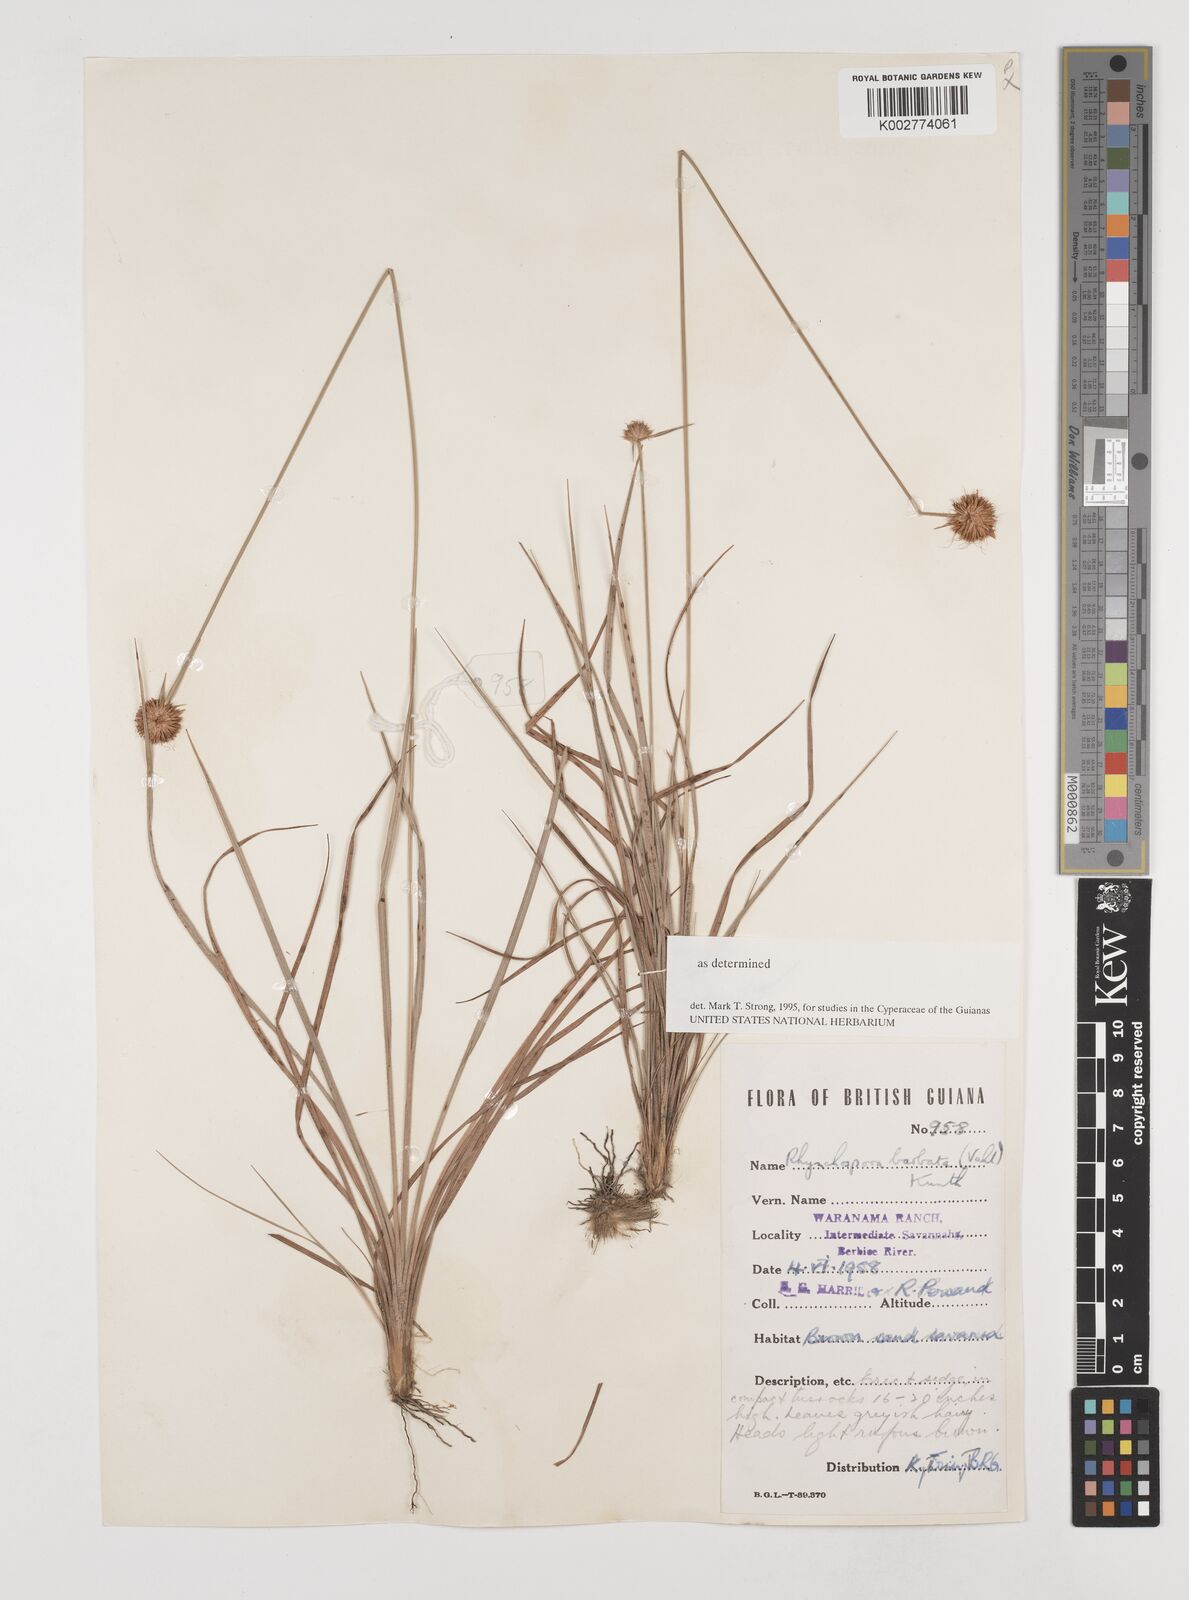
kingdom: Plantae
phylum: Tracheophyta
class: Liliopsida
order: Poales
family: Cyperaceae
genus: Rhynchospora
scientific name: Rhynchospora barbata
